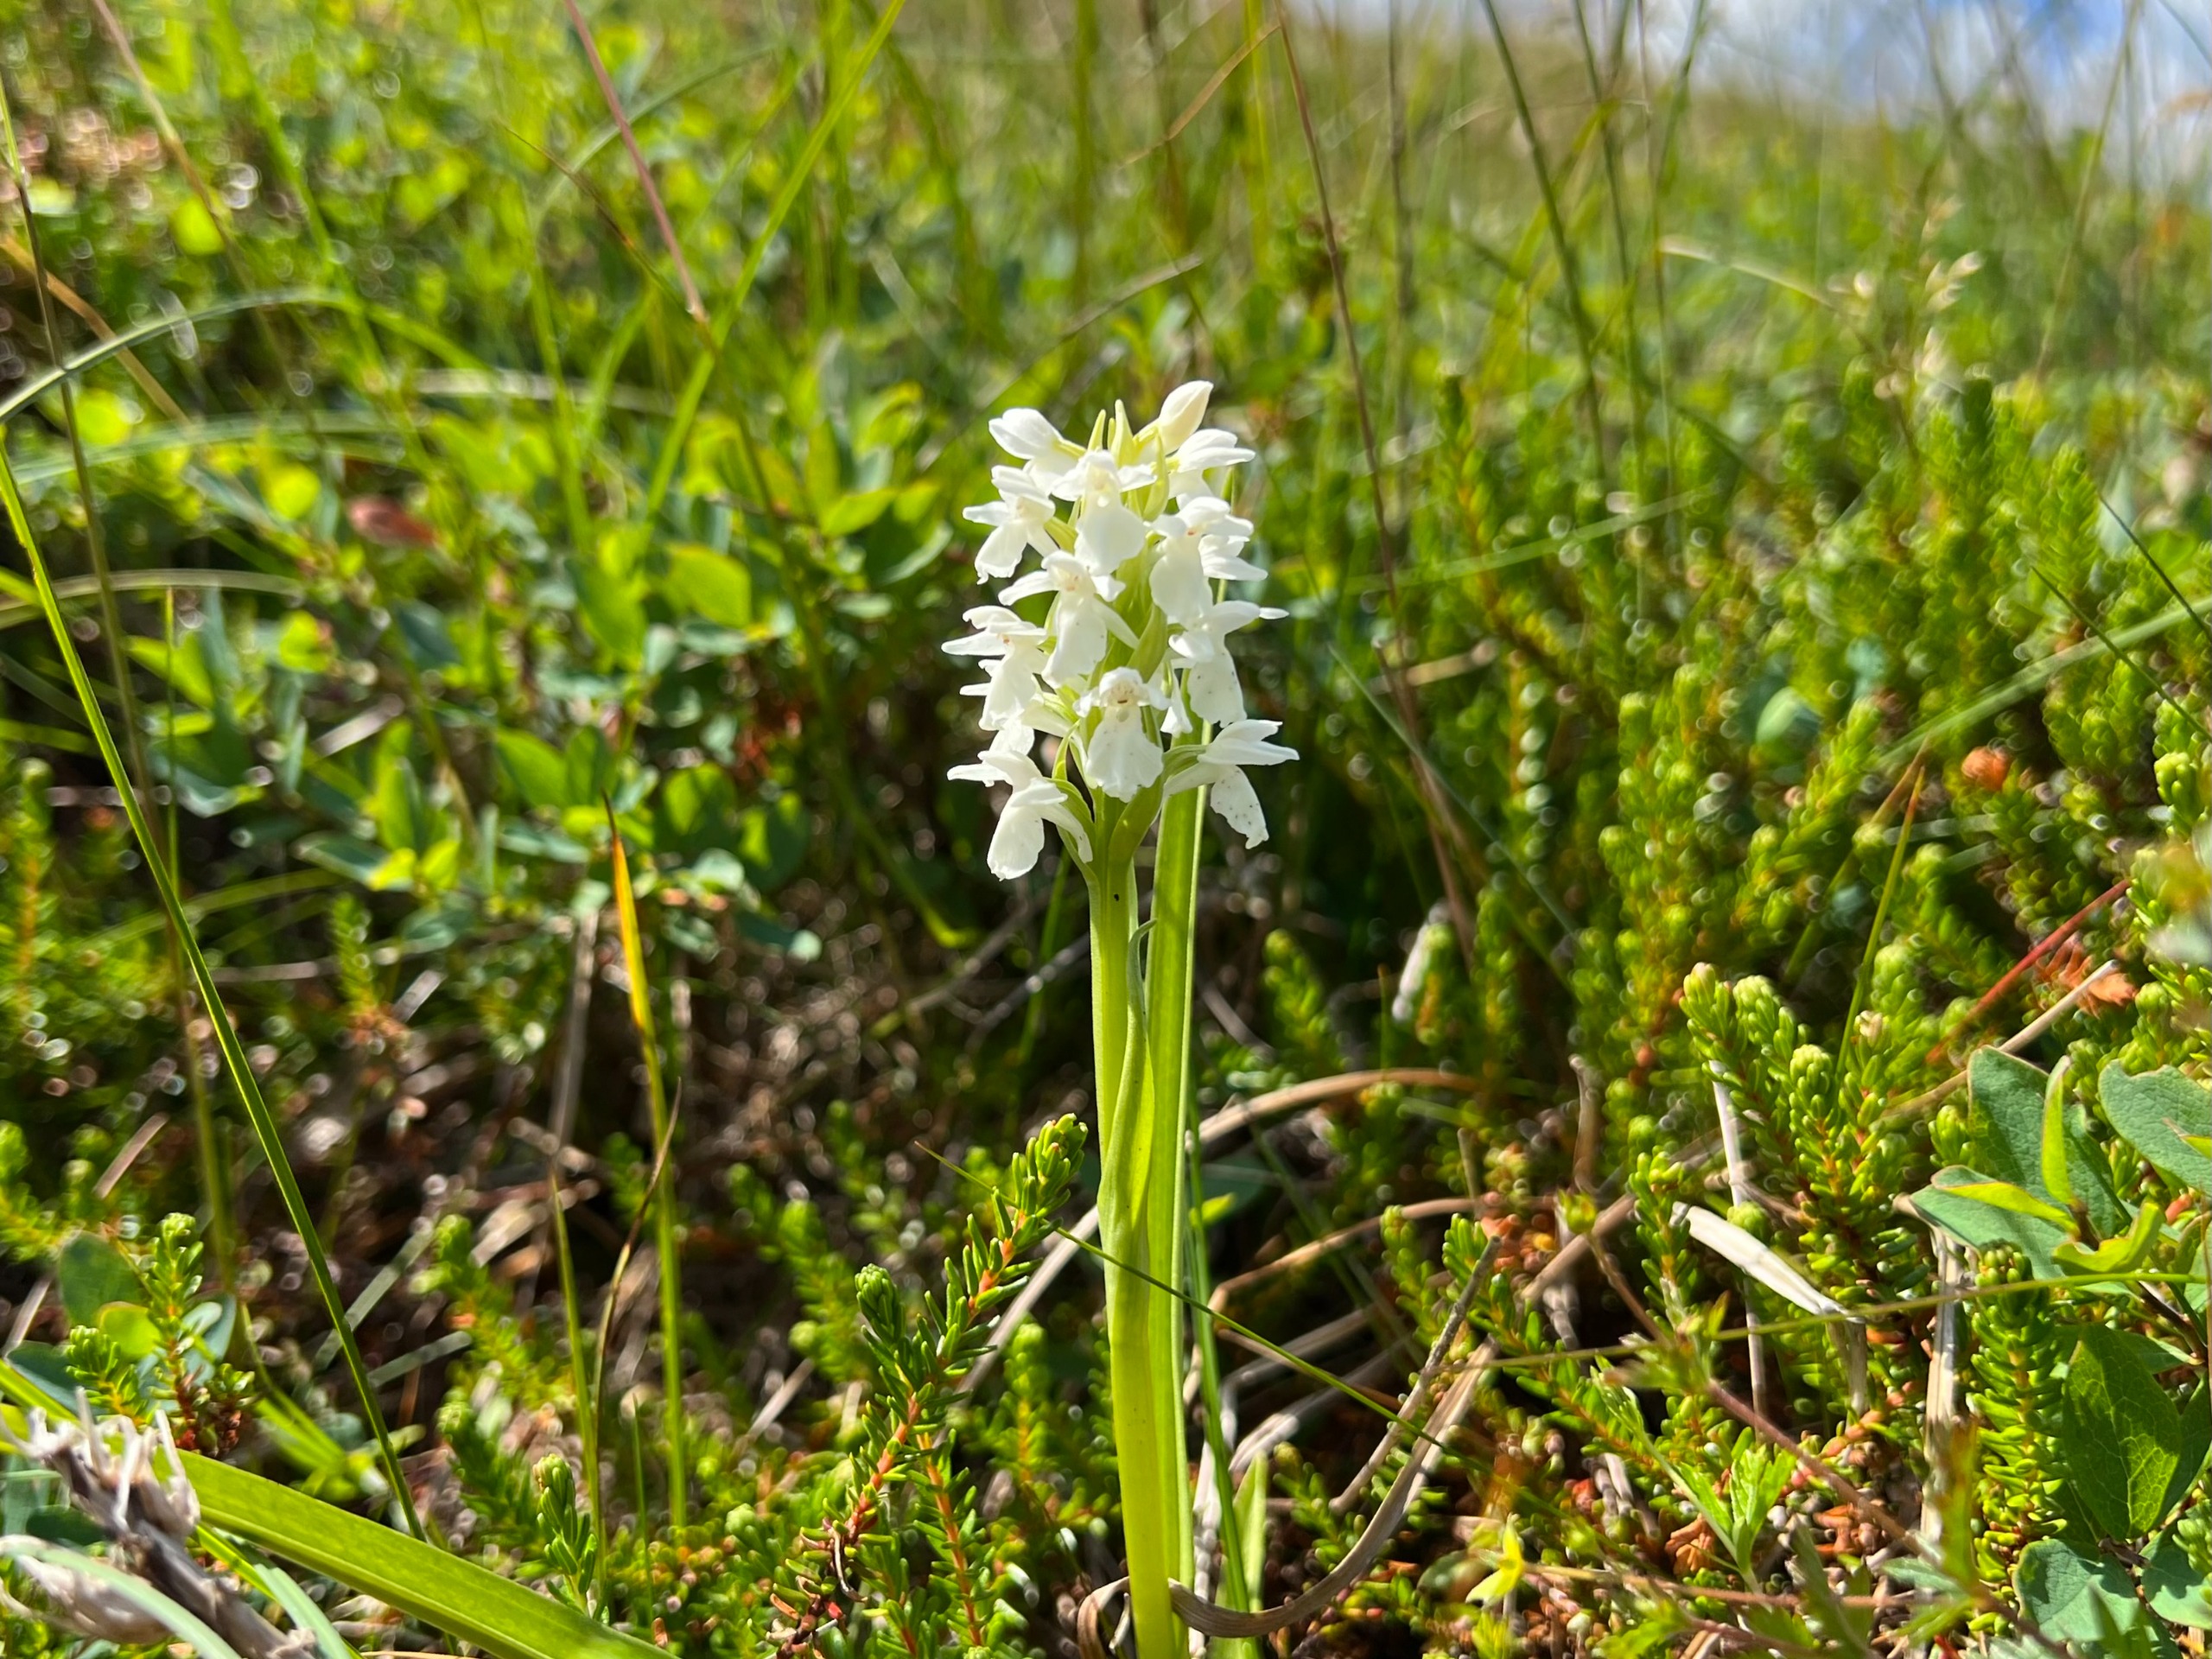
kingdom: Plantae
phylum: Tracheophyta
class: Liliopsida
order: Asparagales
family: Orchidaceae
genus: Dactylorhiza
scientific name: Dactylorhiza majalis
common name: Thy-gøgeurt
